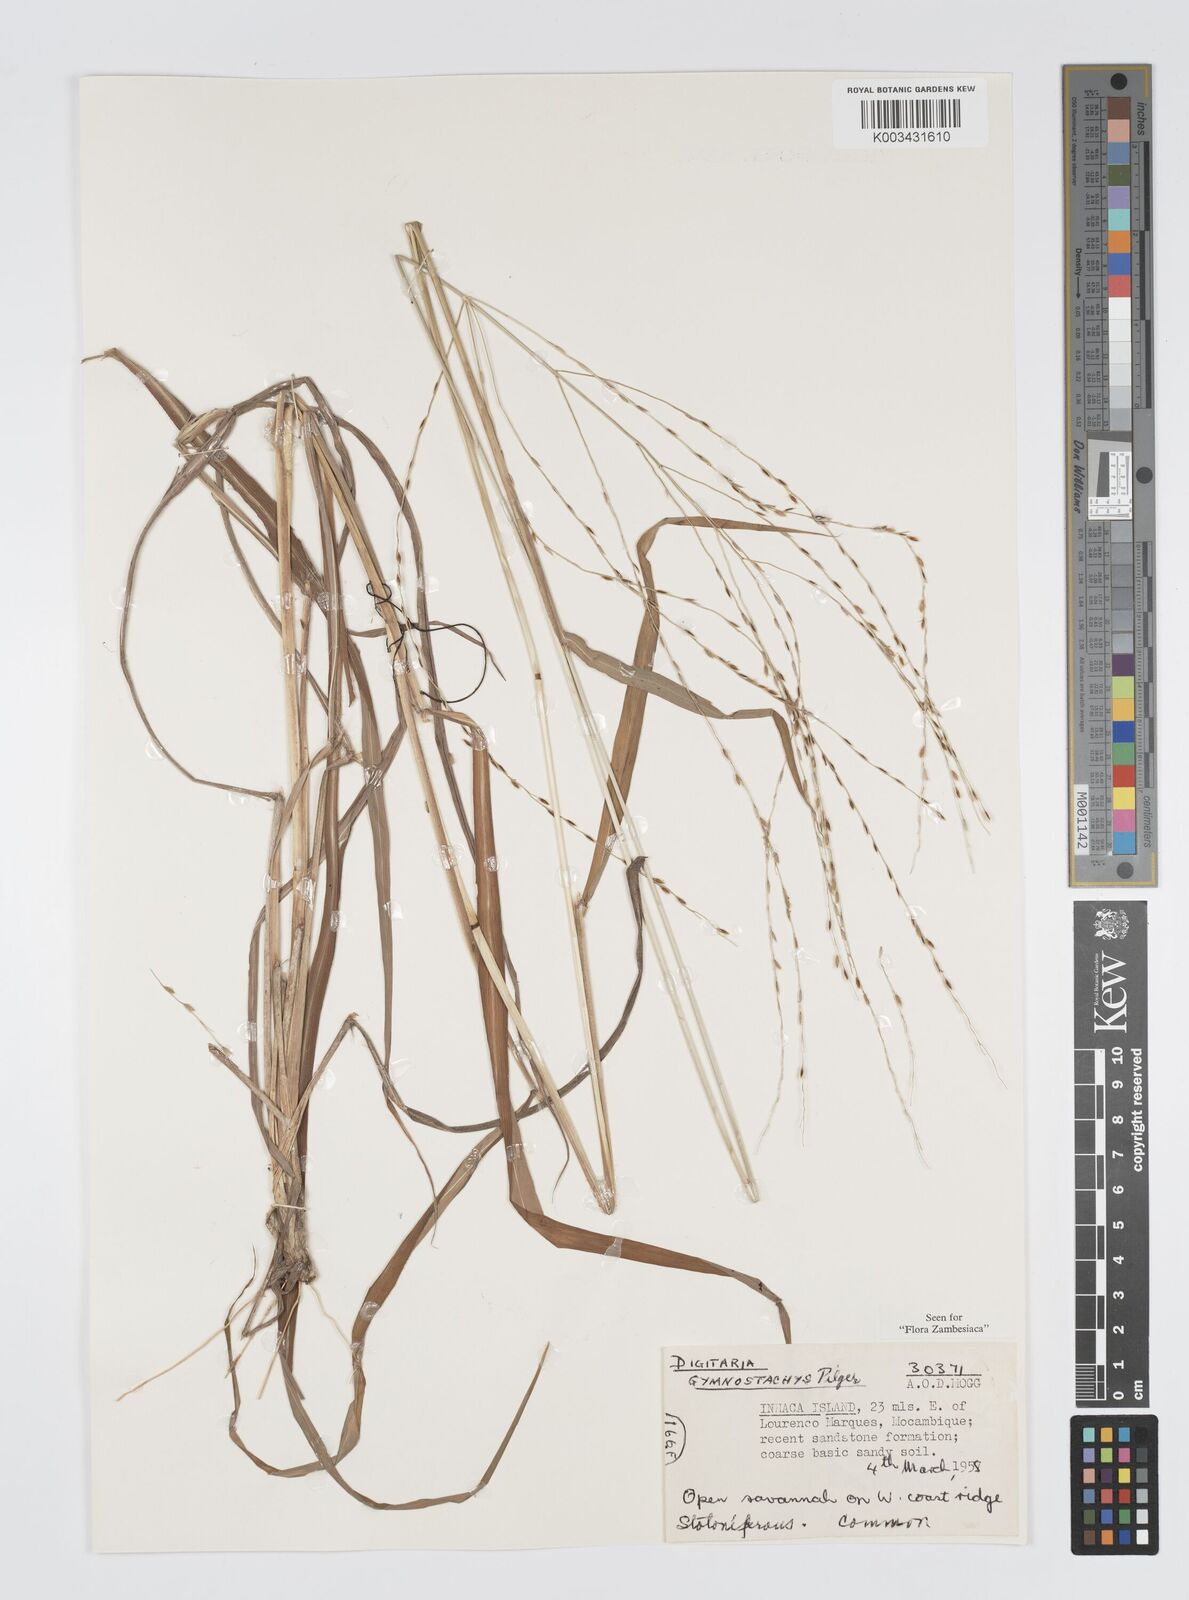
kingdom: Plantae
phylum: Tracheophyta
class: Liliopsida
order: Poales
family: Poaceae
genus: Digitaria
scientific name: Digitaria gymnostachys
